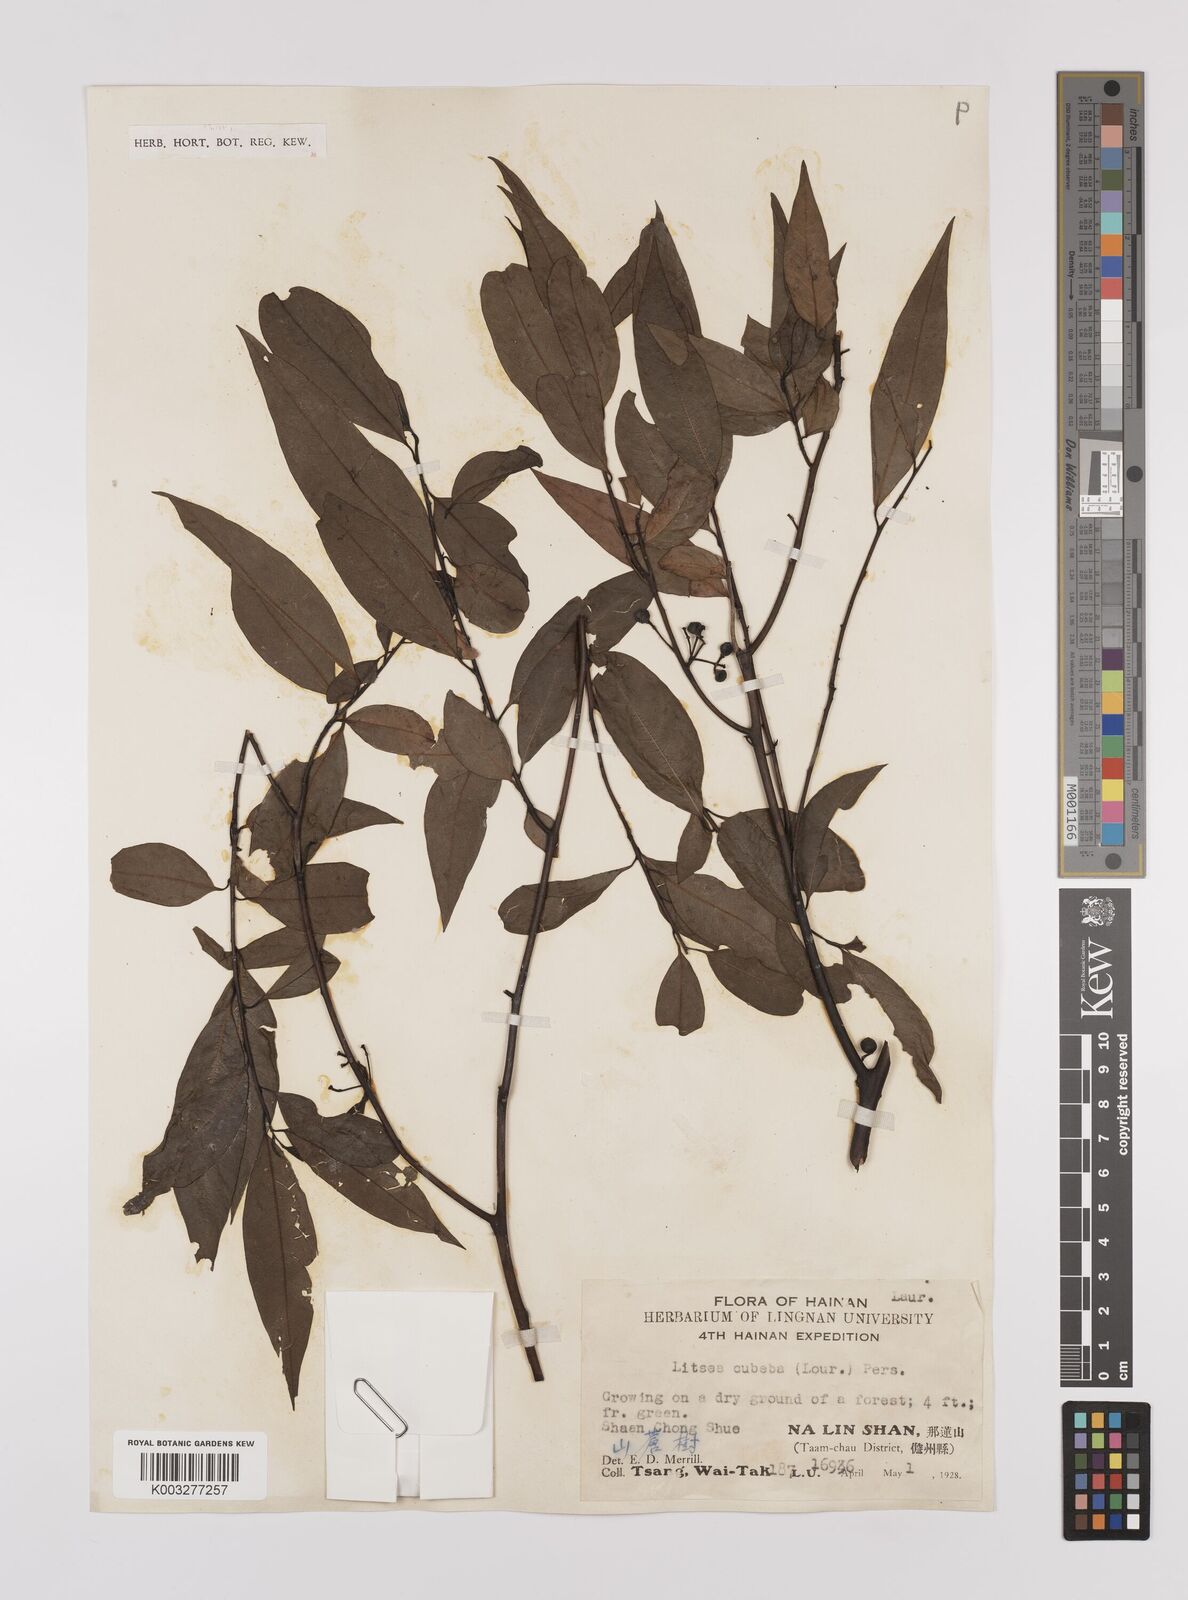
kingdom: Plantae
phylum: Tracheophyta
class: Magnoliopsida
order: Laurales
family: Lauraceae
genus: Litsea
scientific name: Litsea cubeba
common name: Mountain-pepper
